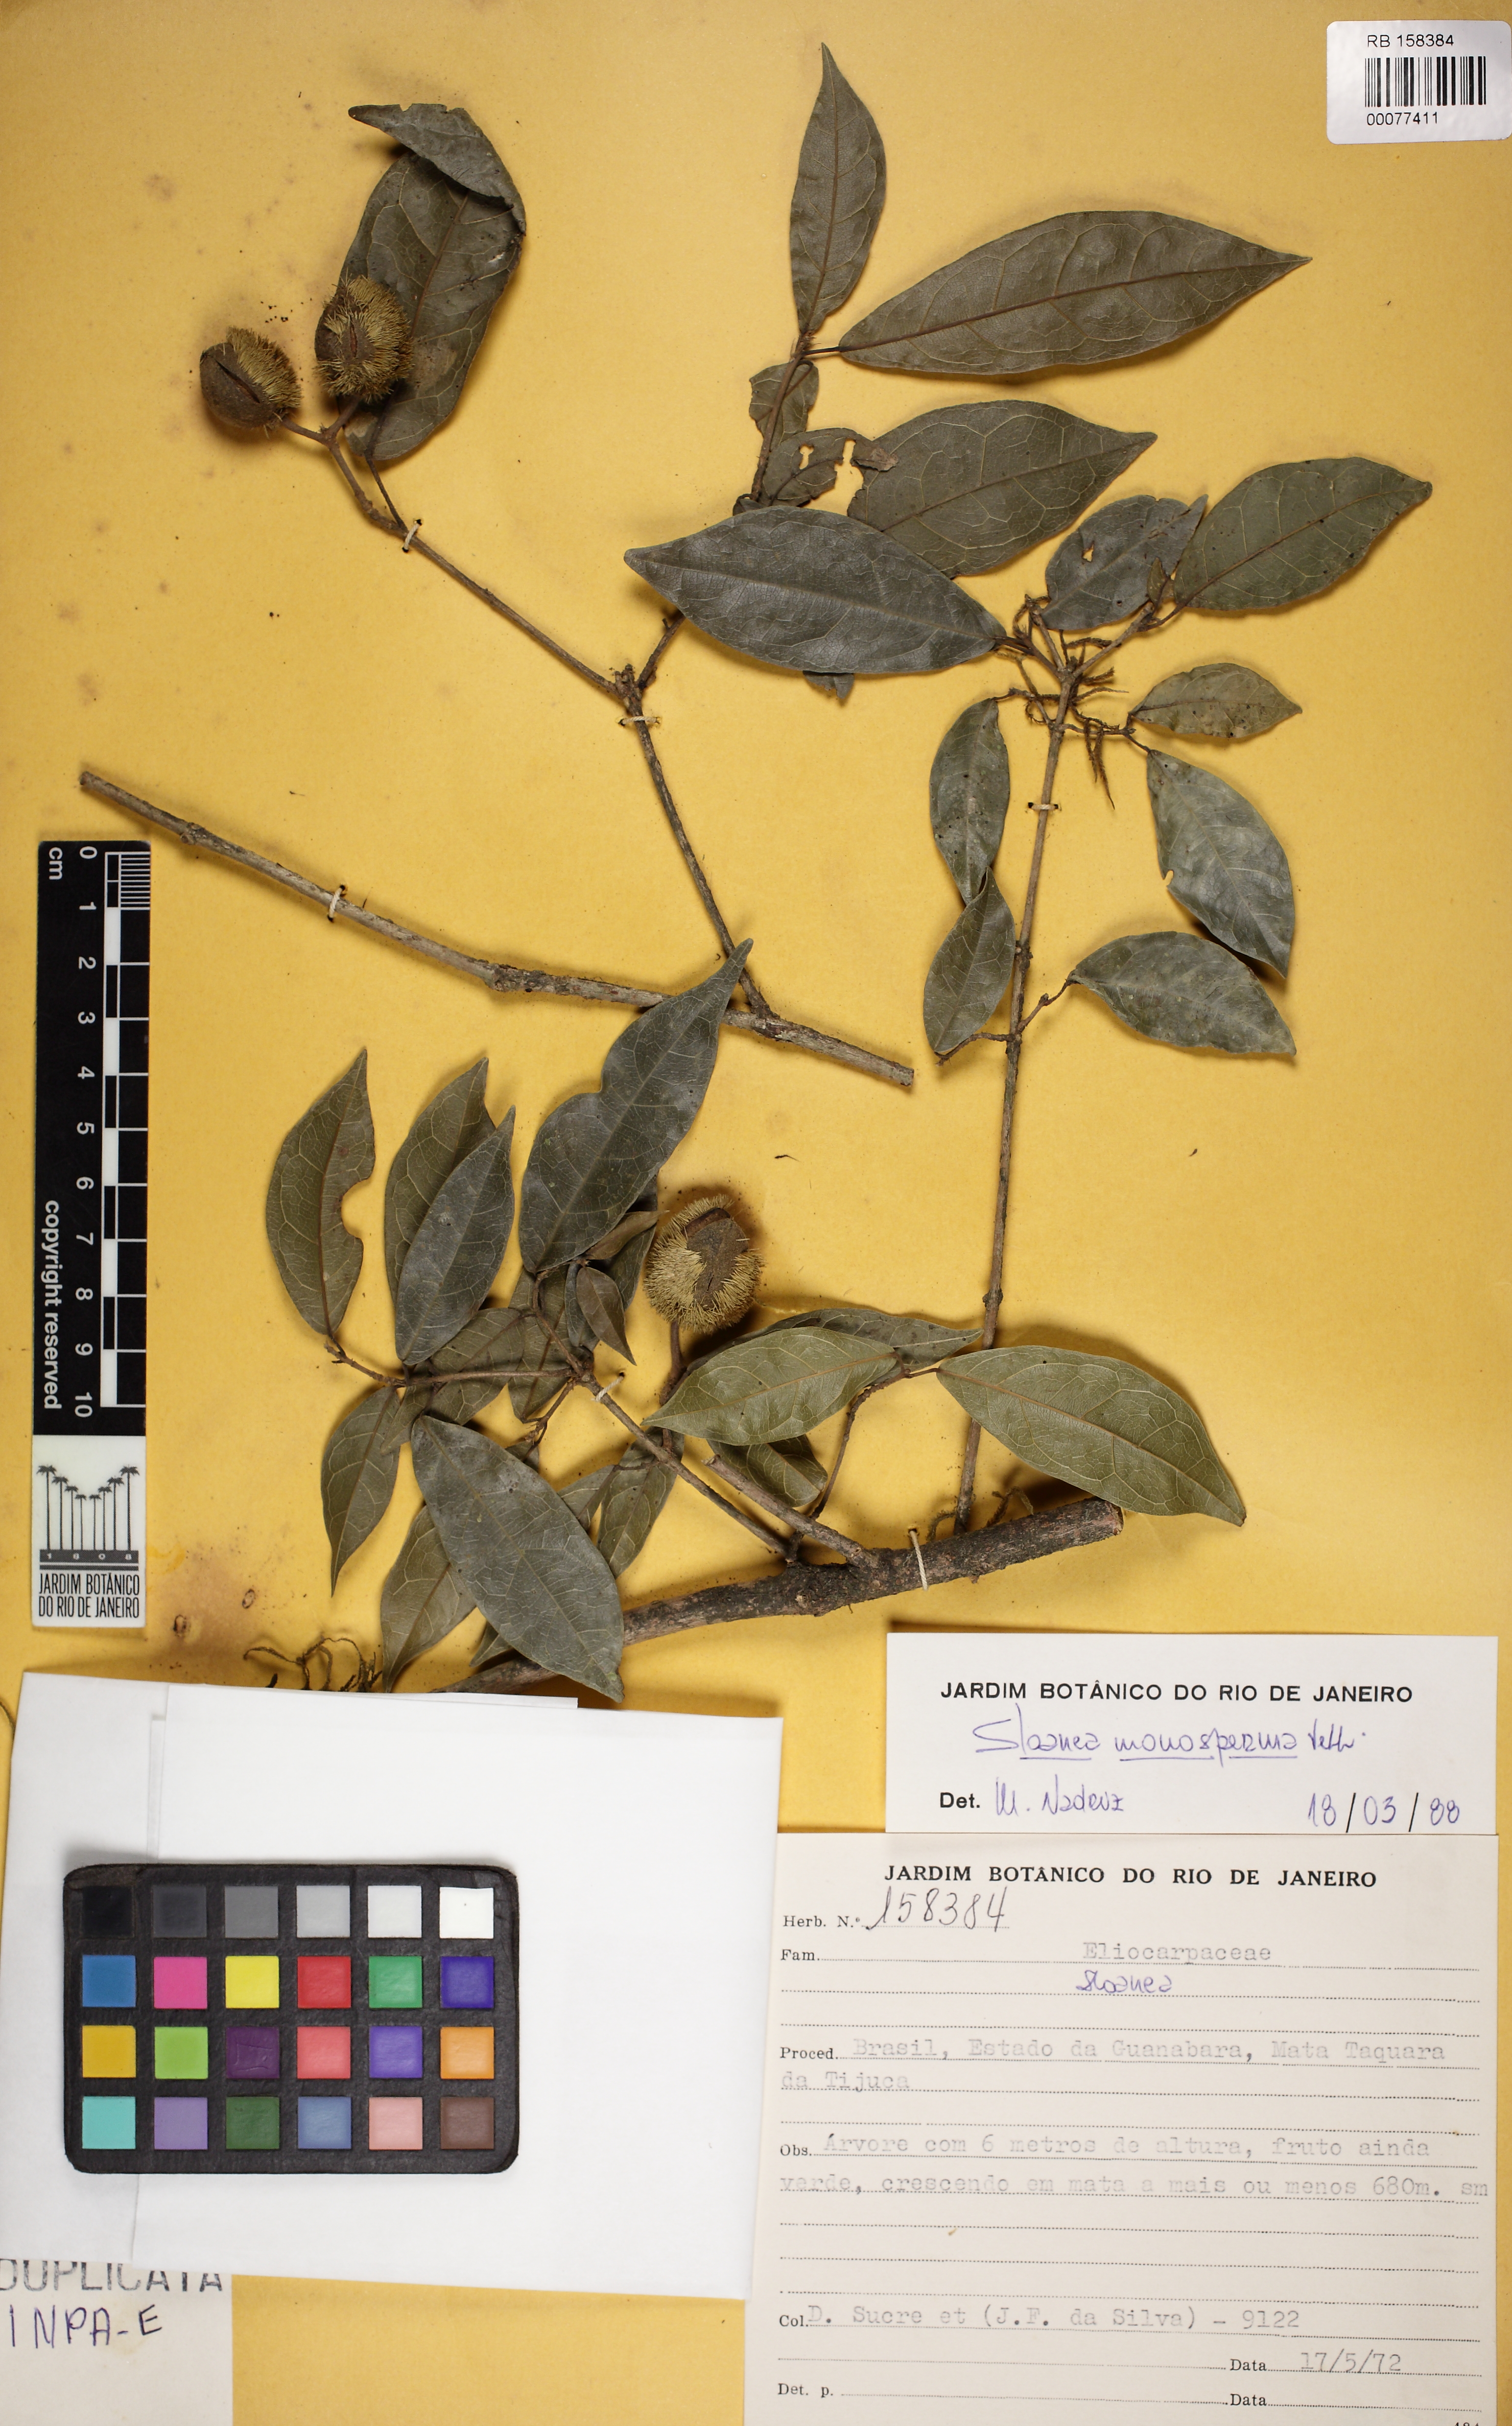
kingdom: Plantae
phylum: Tracheophyta
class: Magnoliopsida
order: Oxalidales
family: Elaeocarpaceae
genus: Sloanea
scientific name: Sloanea hirsuta
